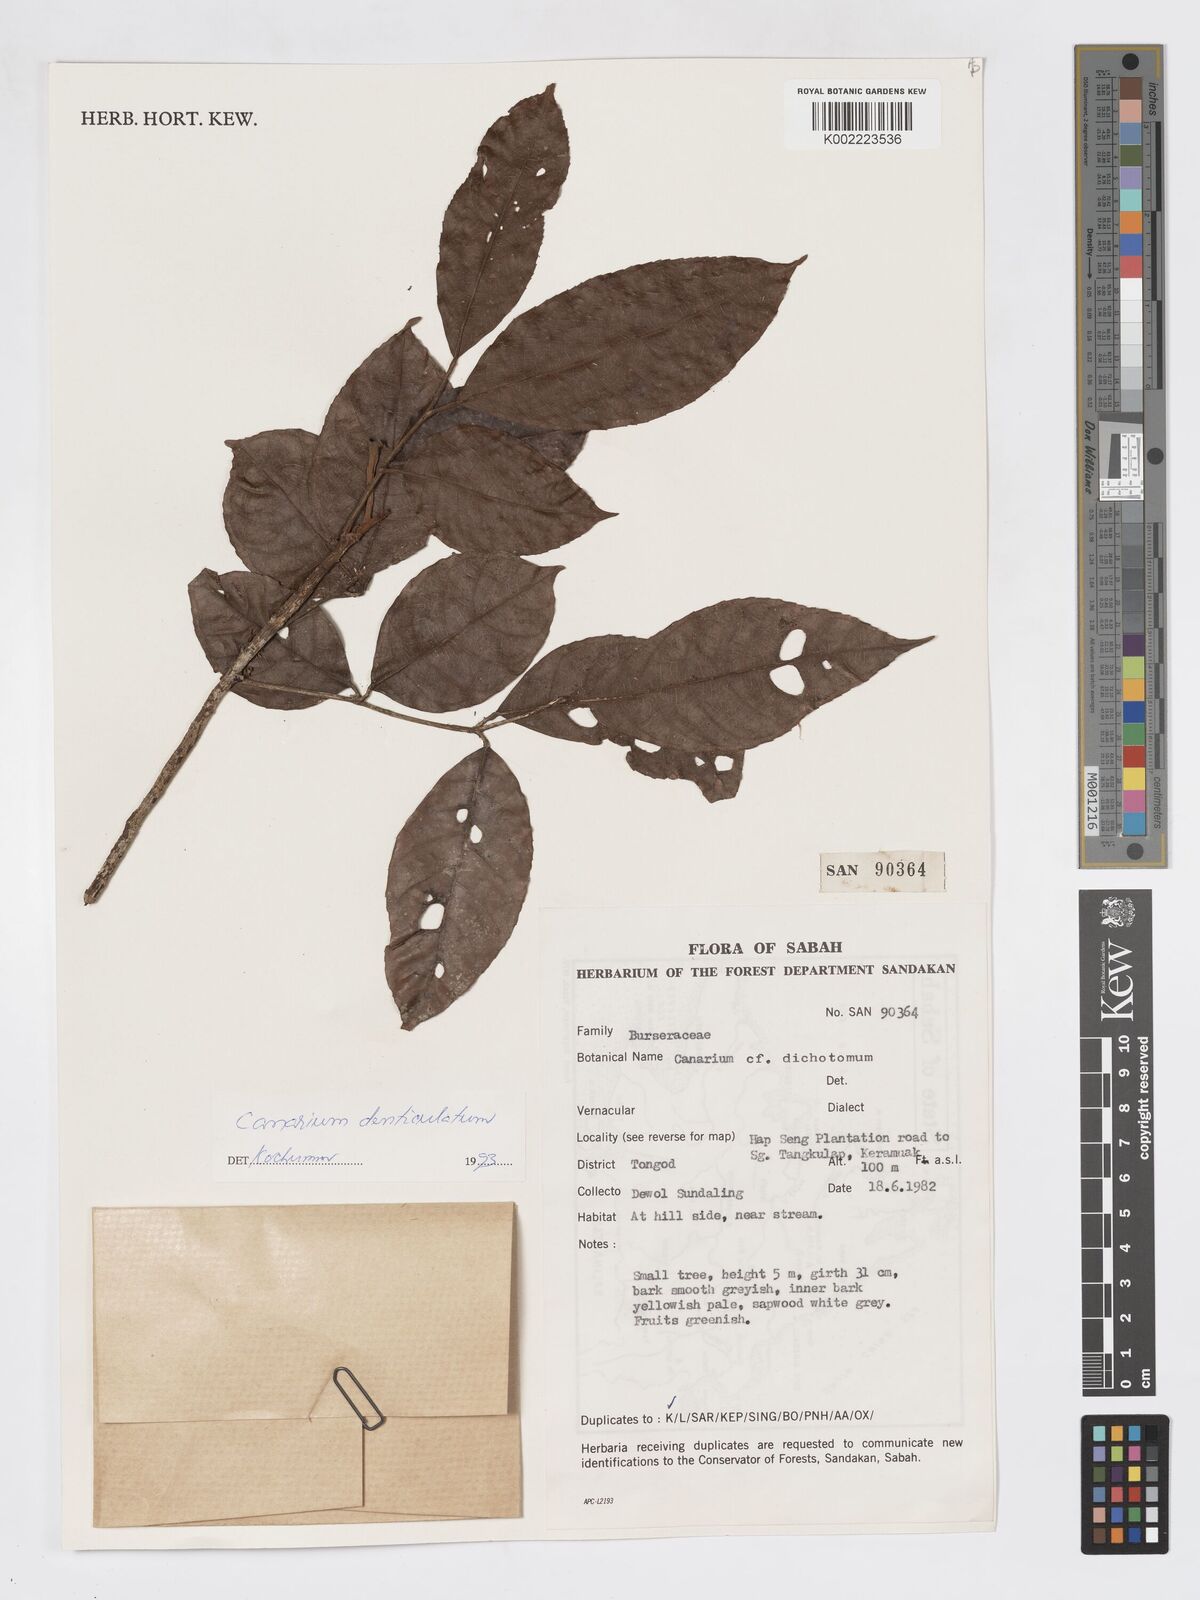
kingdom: Plantae
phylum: Tracheophyta
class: Magnoliopsida
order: Sapindales
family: Burseraceae
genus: Canarium
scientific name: Canarium denticulatum
